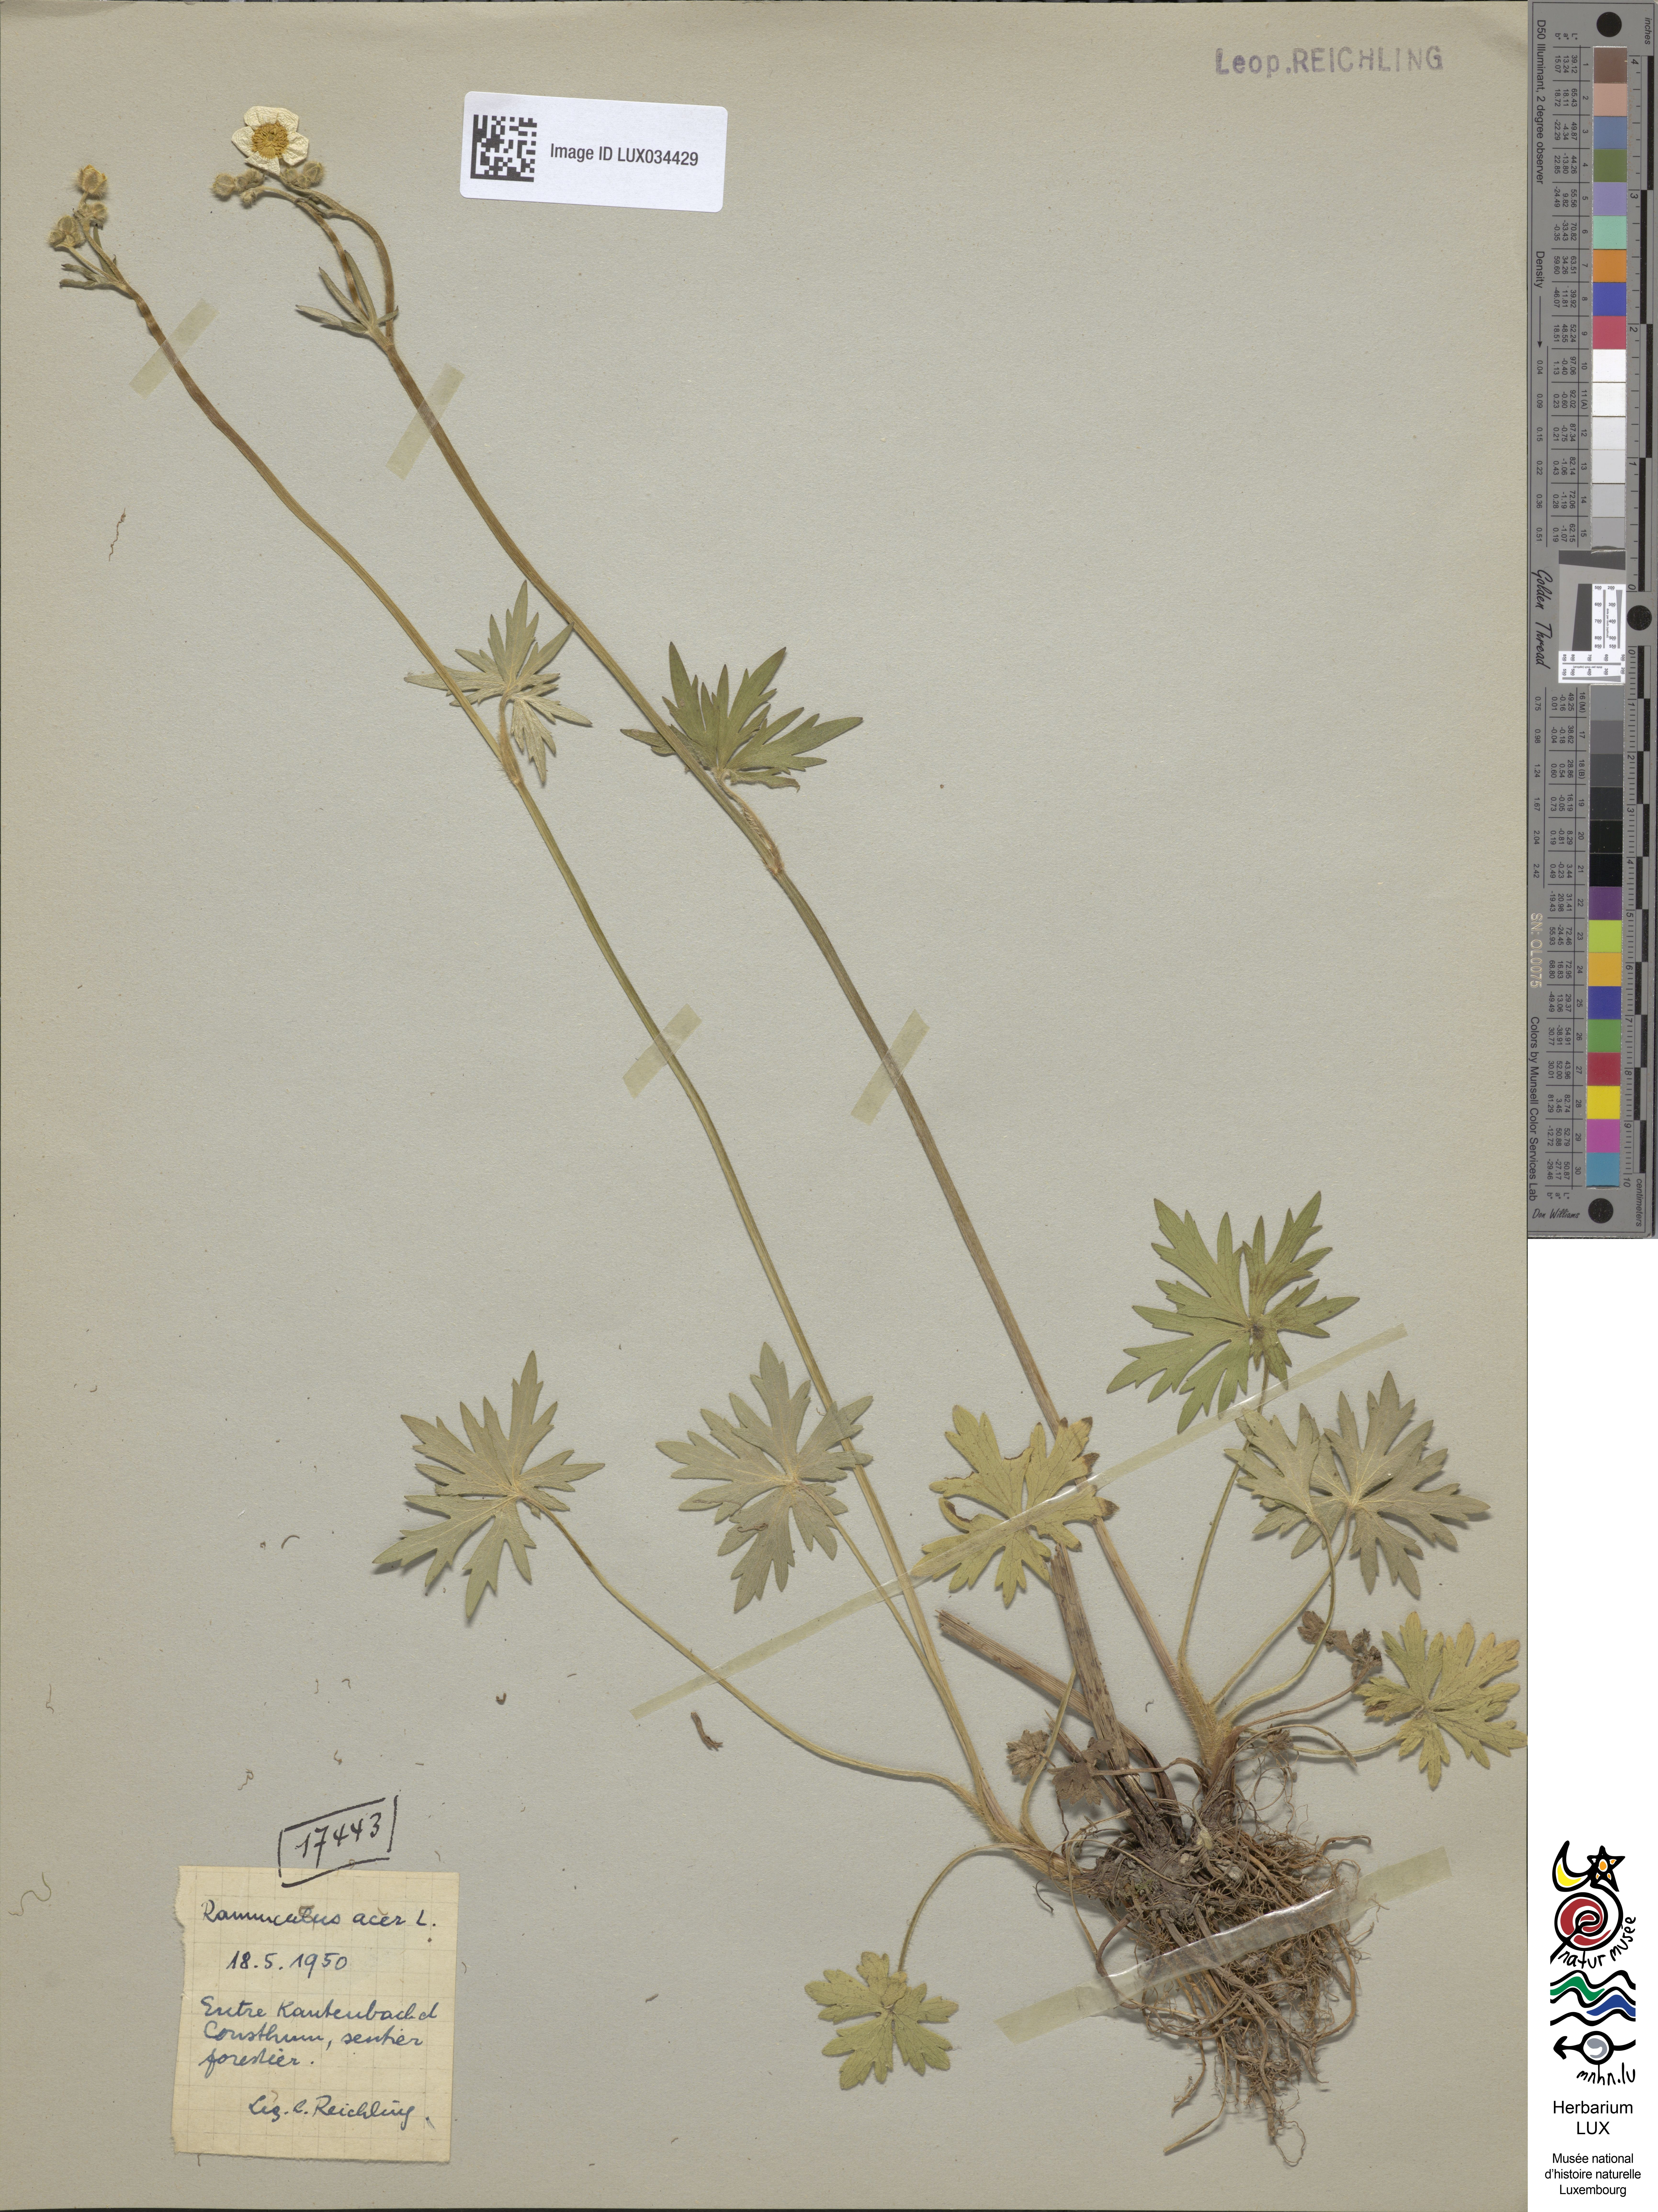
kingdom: Plantae
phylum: Tracheophyta
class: Magnoliopsida
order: Ranunculales
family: Ranunculaceae
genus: Ranunculus
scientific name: Ranunculus acris
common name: Meadow buttercup
